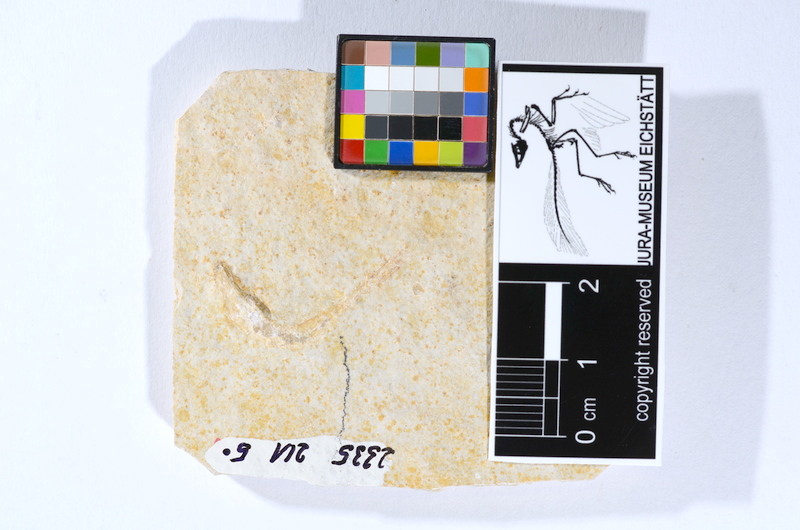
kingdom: Animalia
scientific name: Animalia
